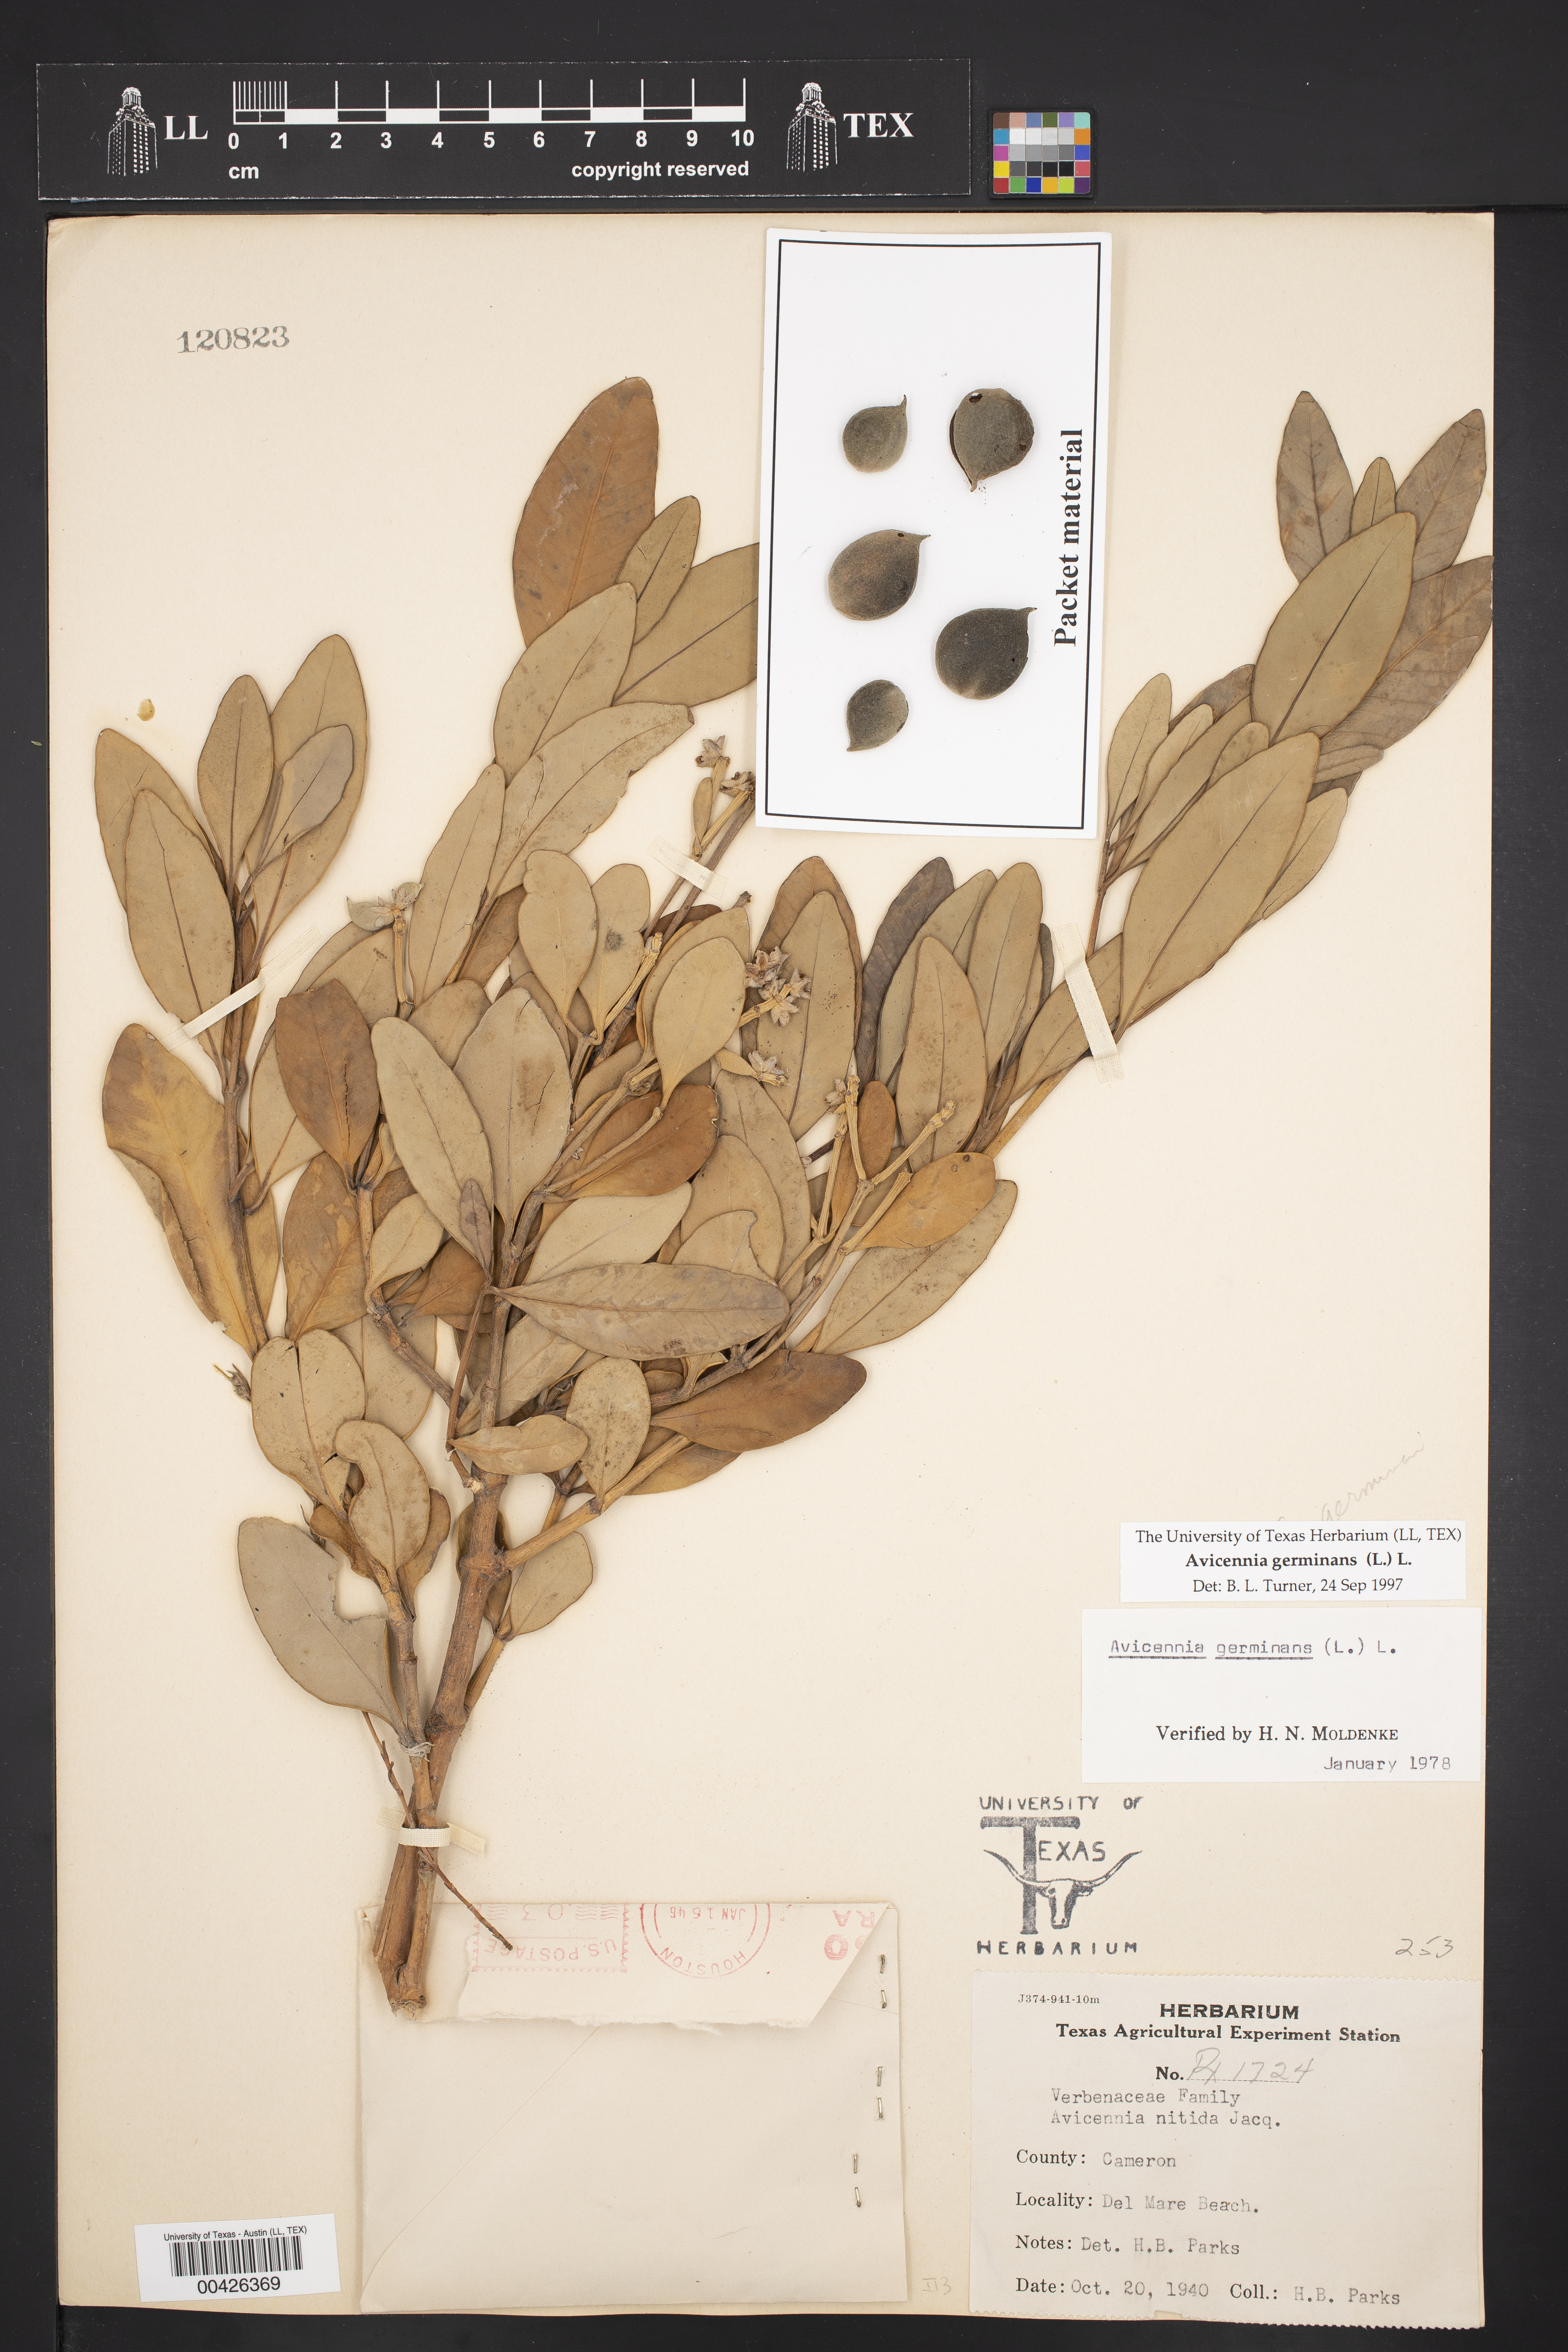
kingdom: Plantae
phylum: Tracheophyta
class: Magnoliopsida
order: Lamiales
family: Acanthaceae
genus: Avicennia
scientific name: Avicennia germinans
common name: Black mangrove
